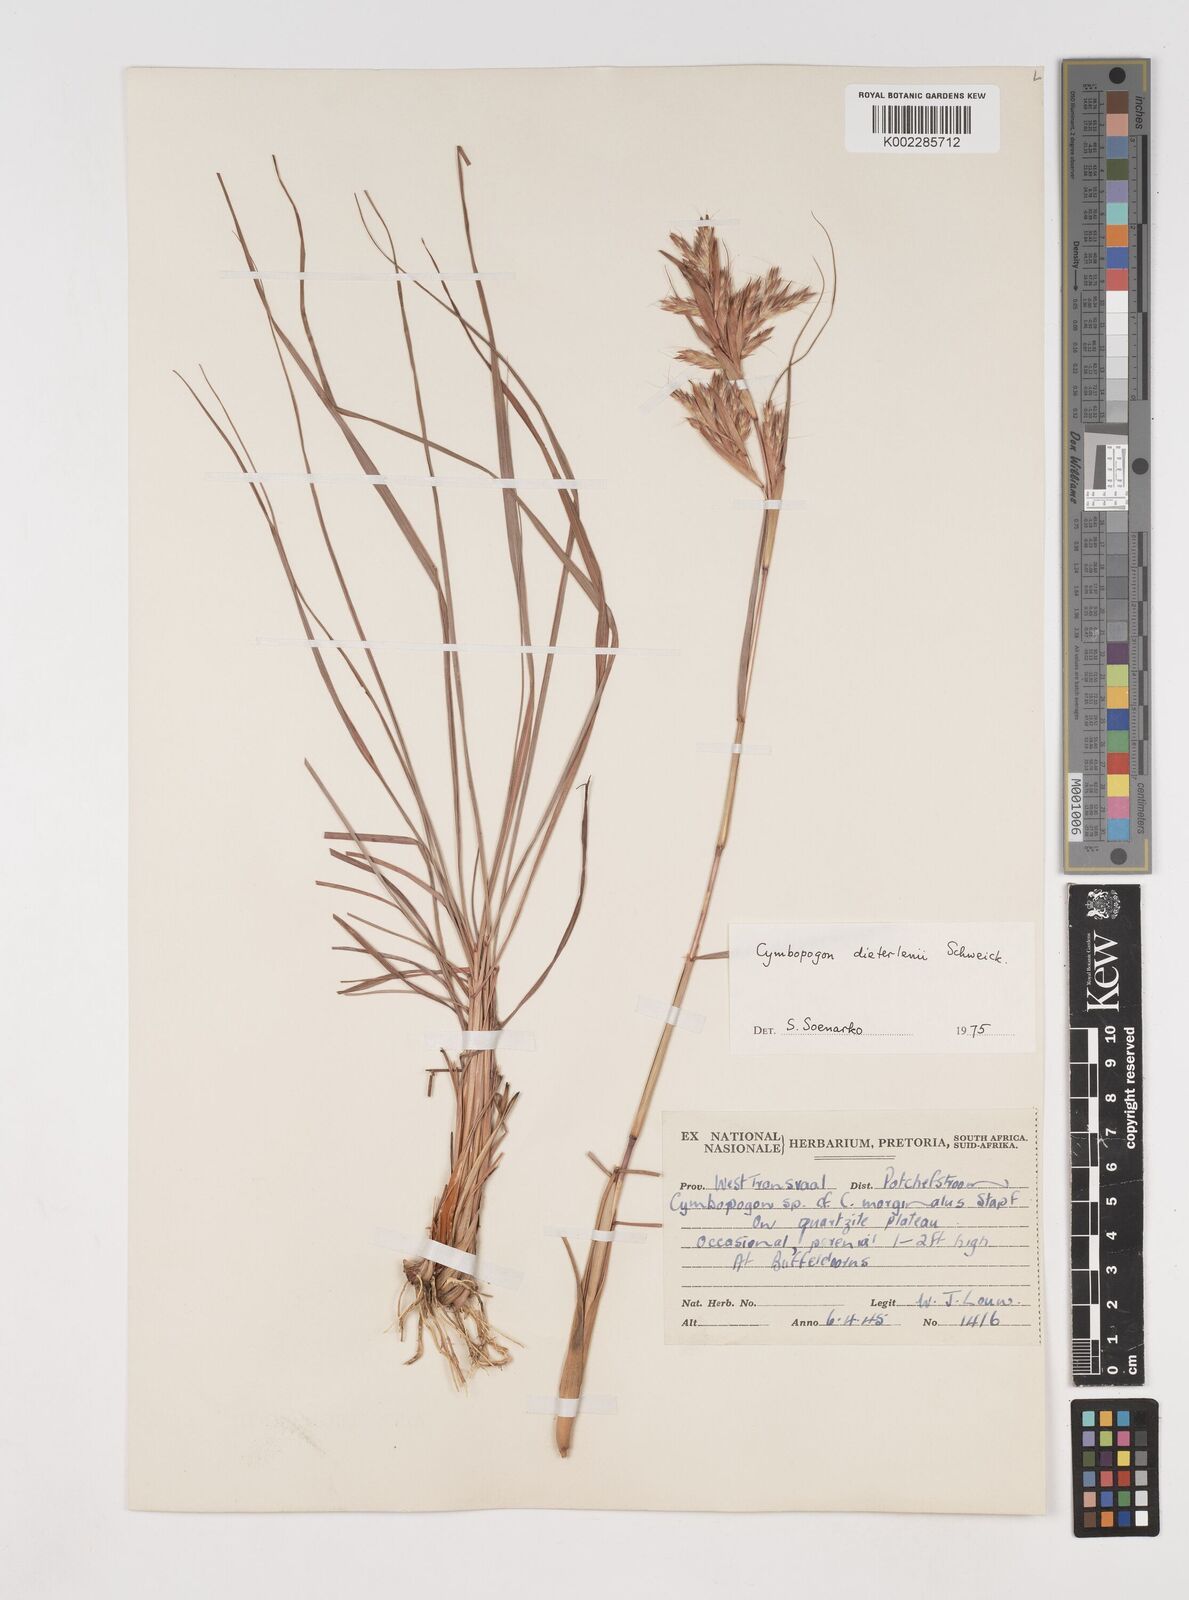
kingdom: Plantae
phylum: Tracheophyta
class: Liliopsida
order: Poales
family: Poaceae
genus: Cymbopogon
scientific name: Cymbopogon dieterlenii
